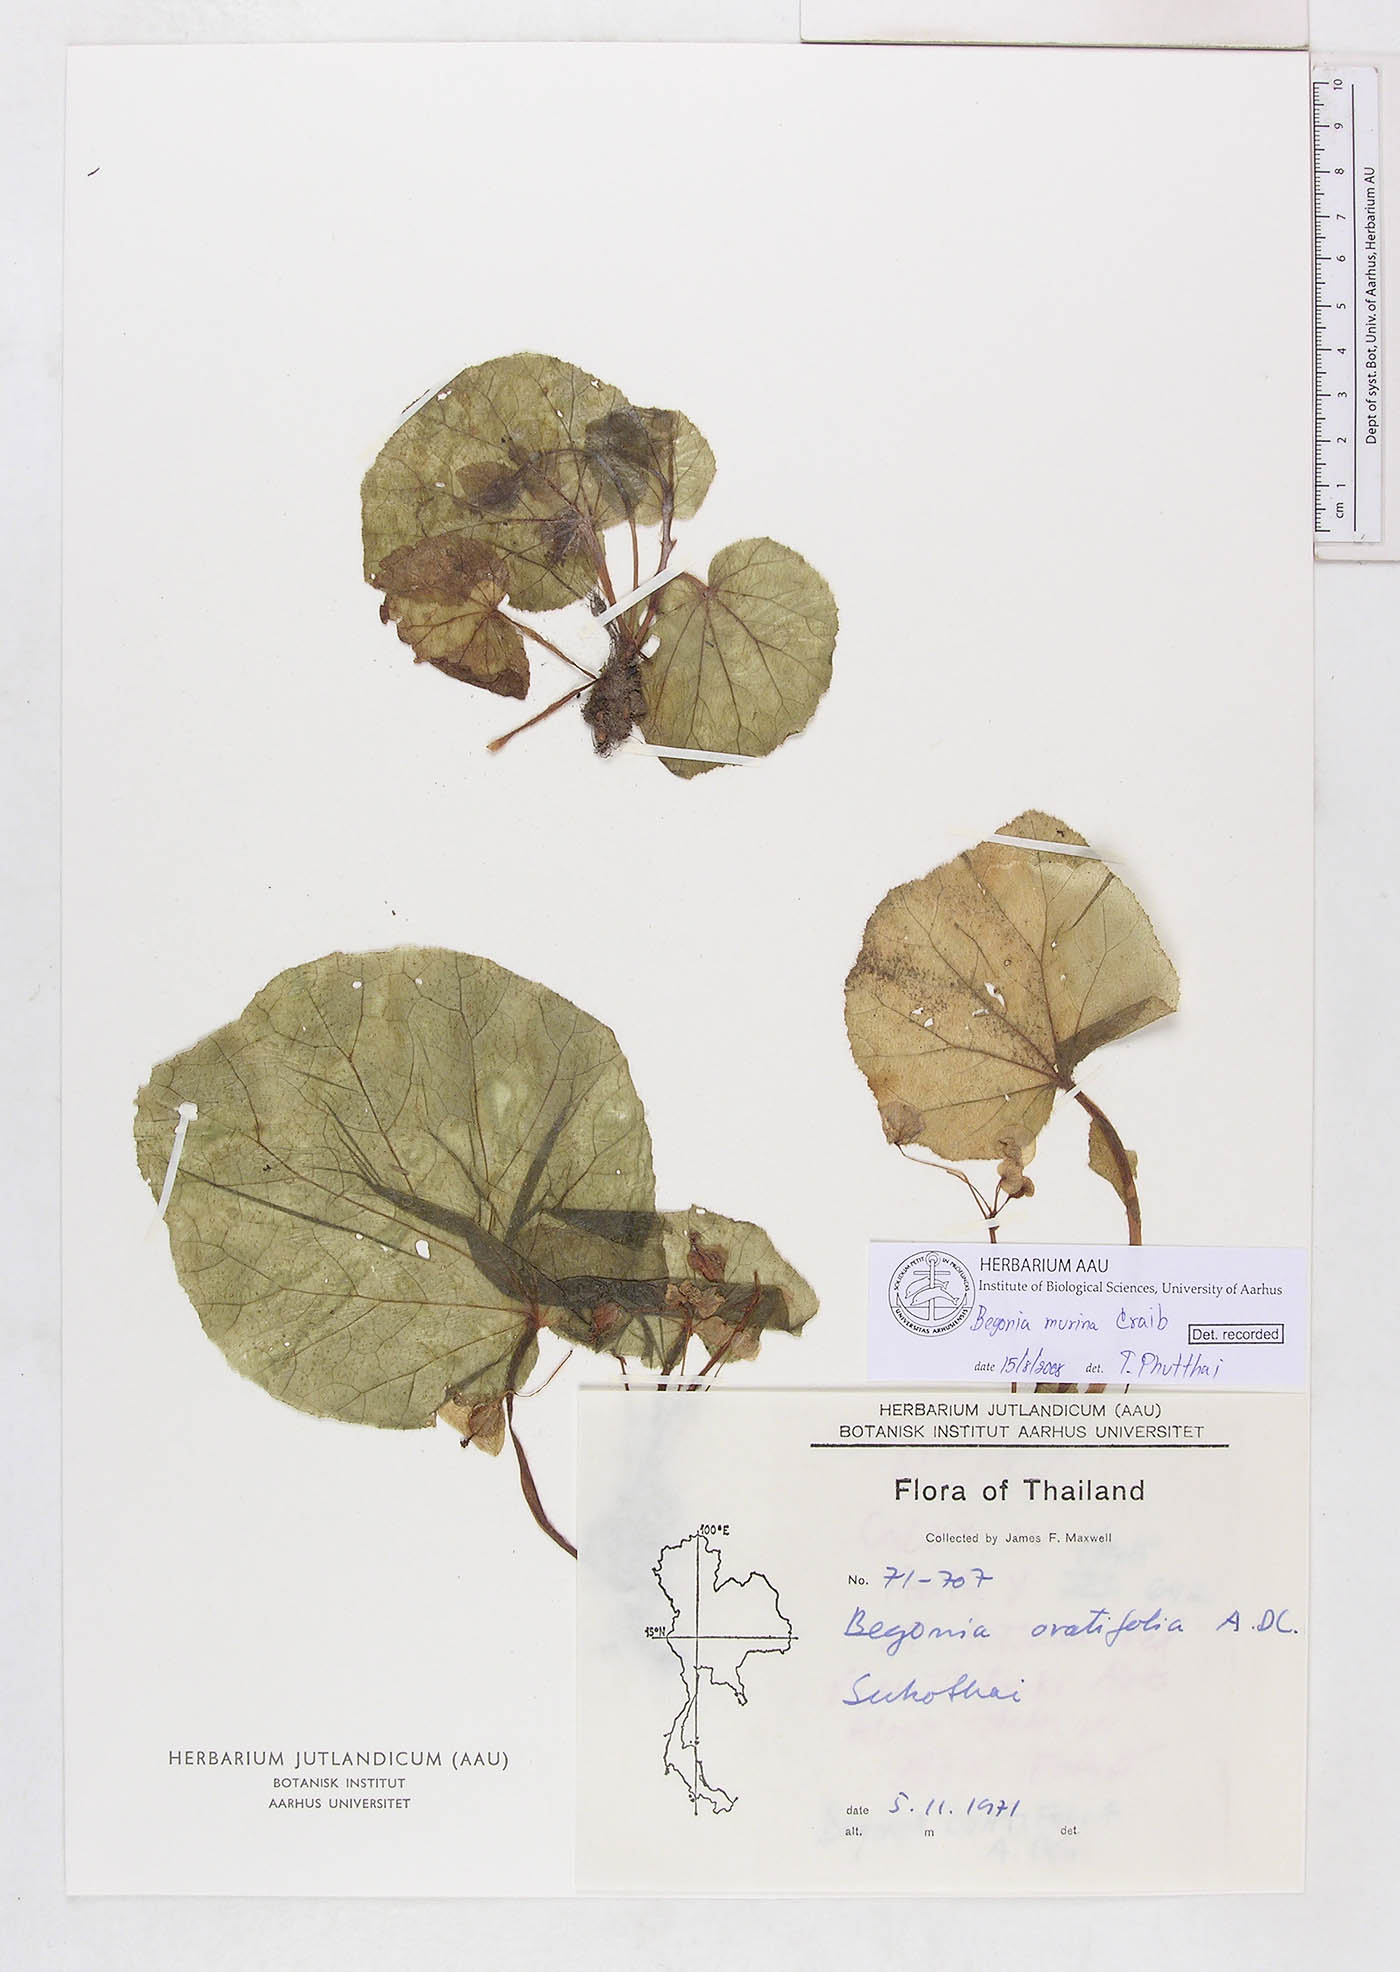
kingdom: Plantae
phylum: Tracheophyta
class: Magnoliopsida
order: Cucurbitales
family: Begoniaceae
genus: Begonia
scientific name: Begonia murina
